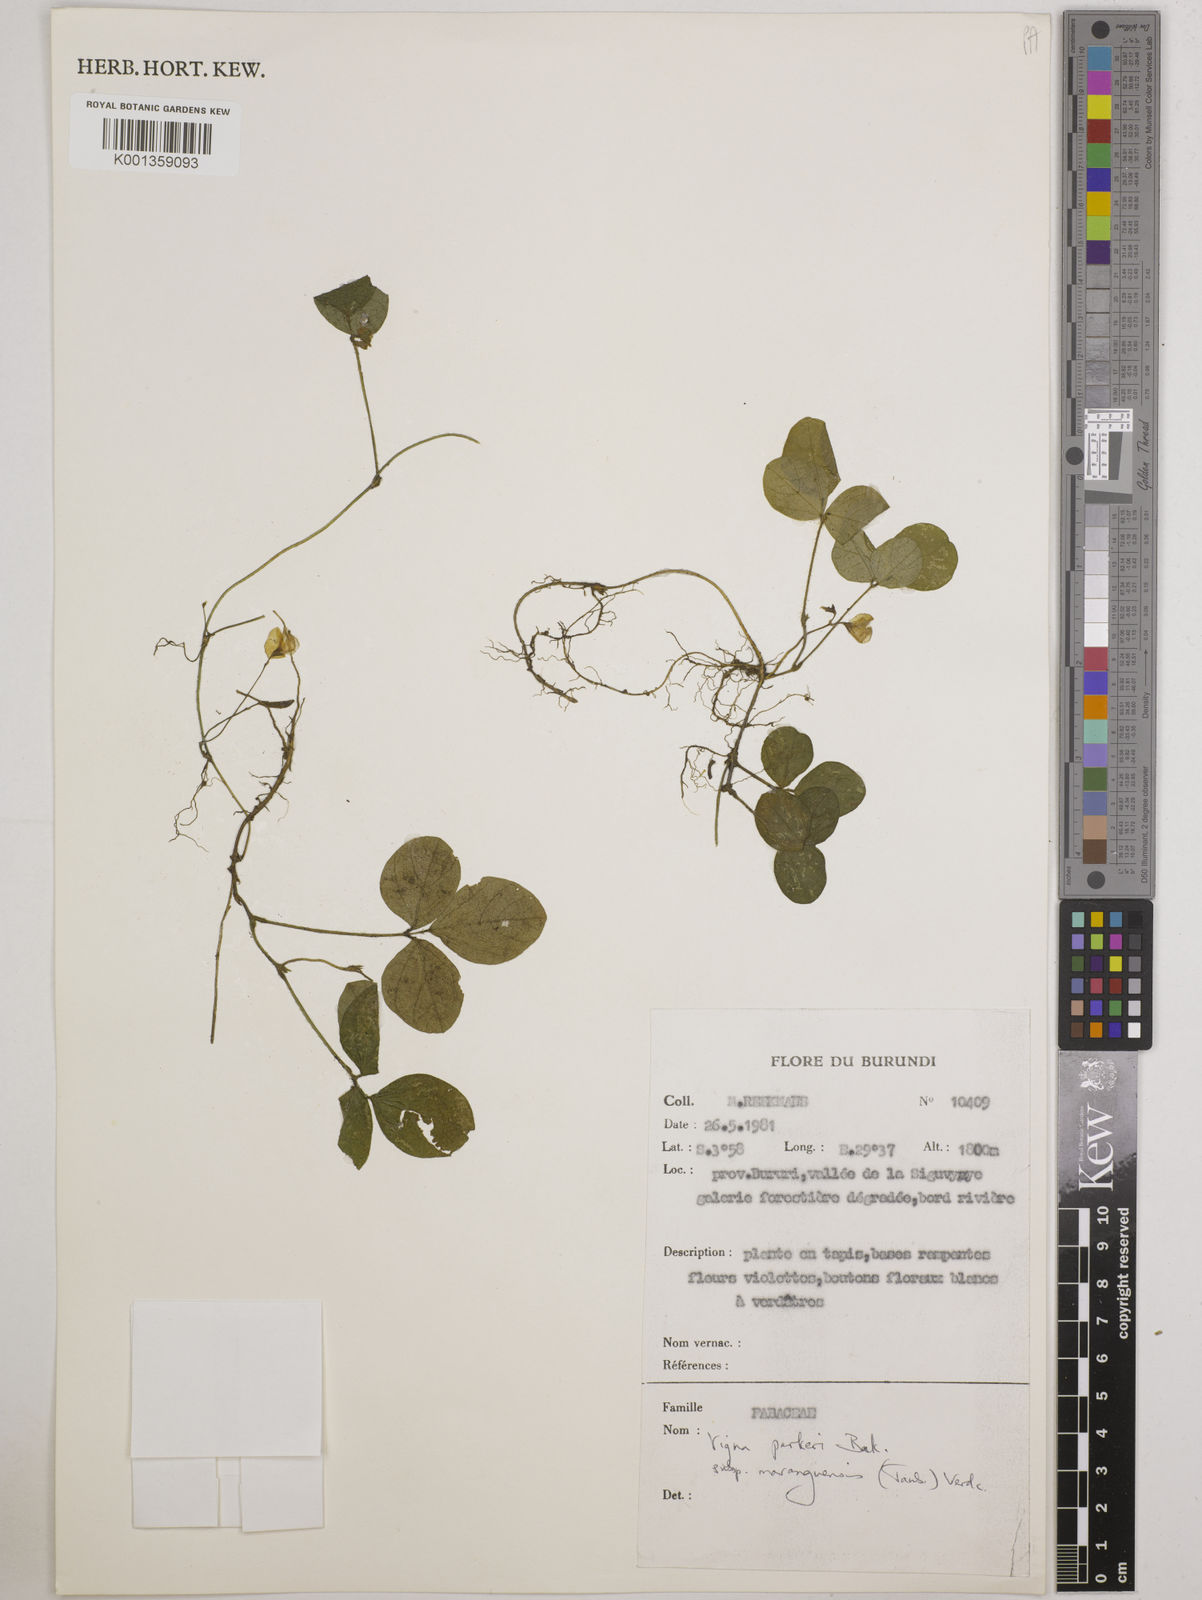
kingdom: Plantae
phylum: Tracheophyta
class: Magnoliopsida
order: Fabales
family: Fabaceae
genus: Vigna
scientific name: Vigna
